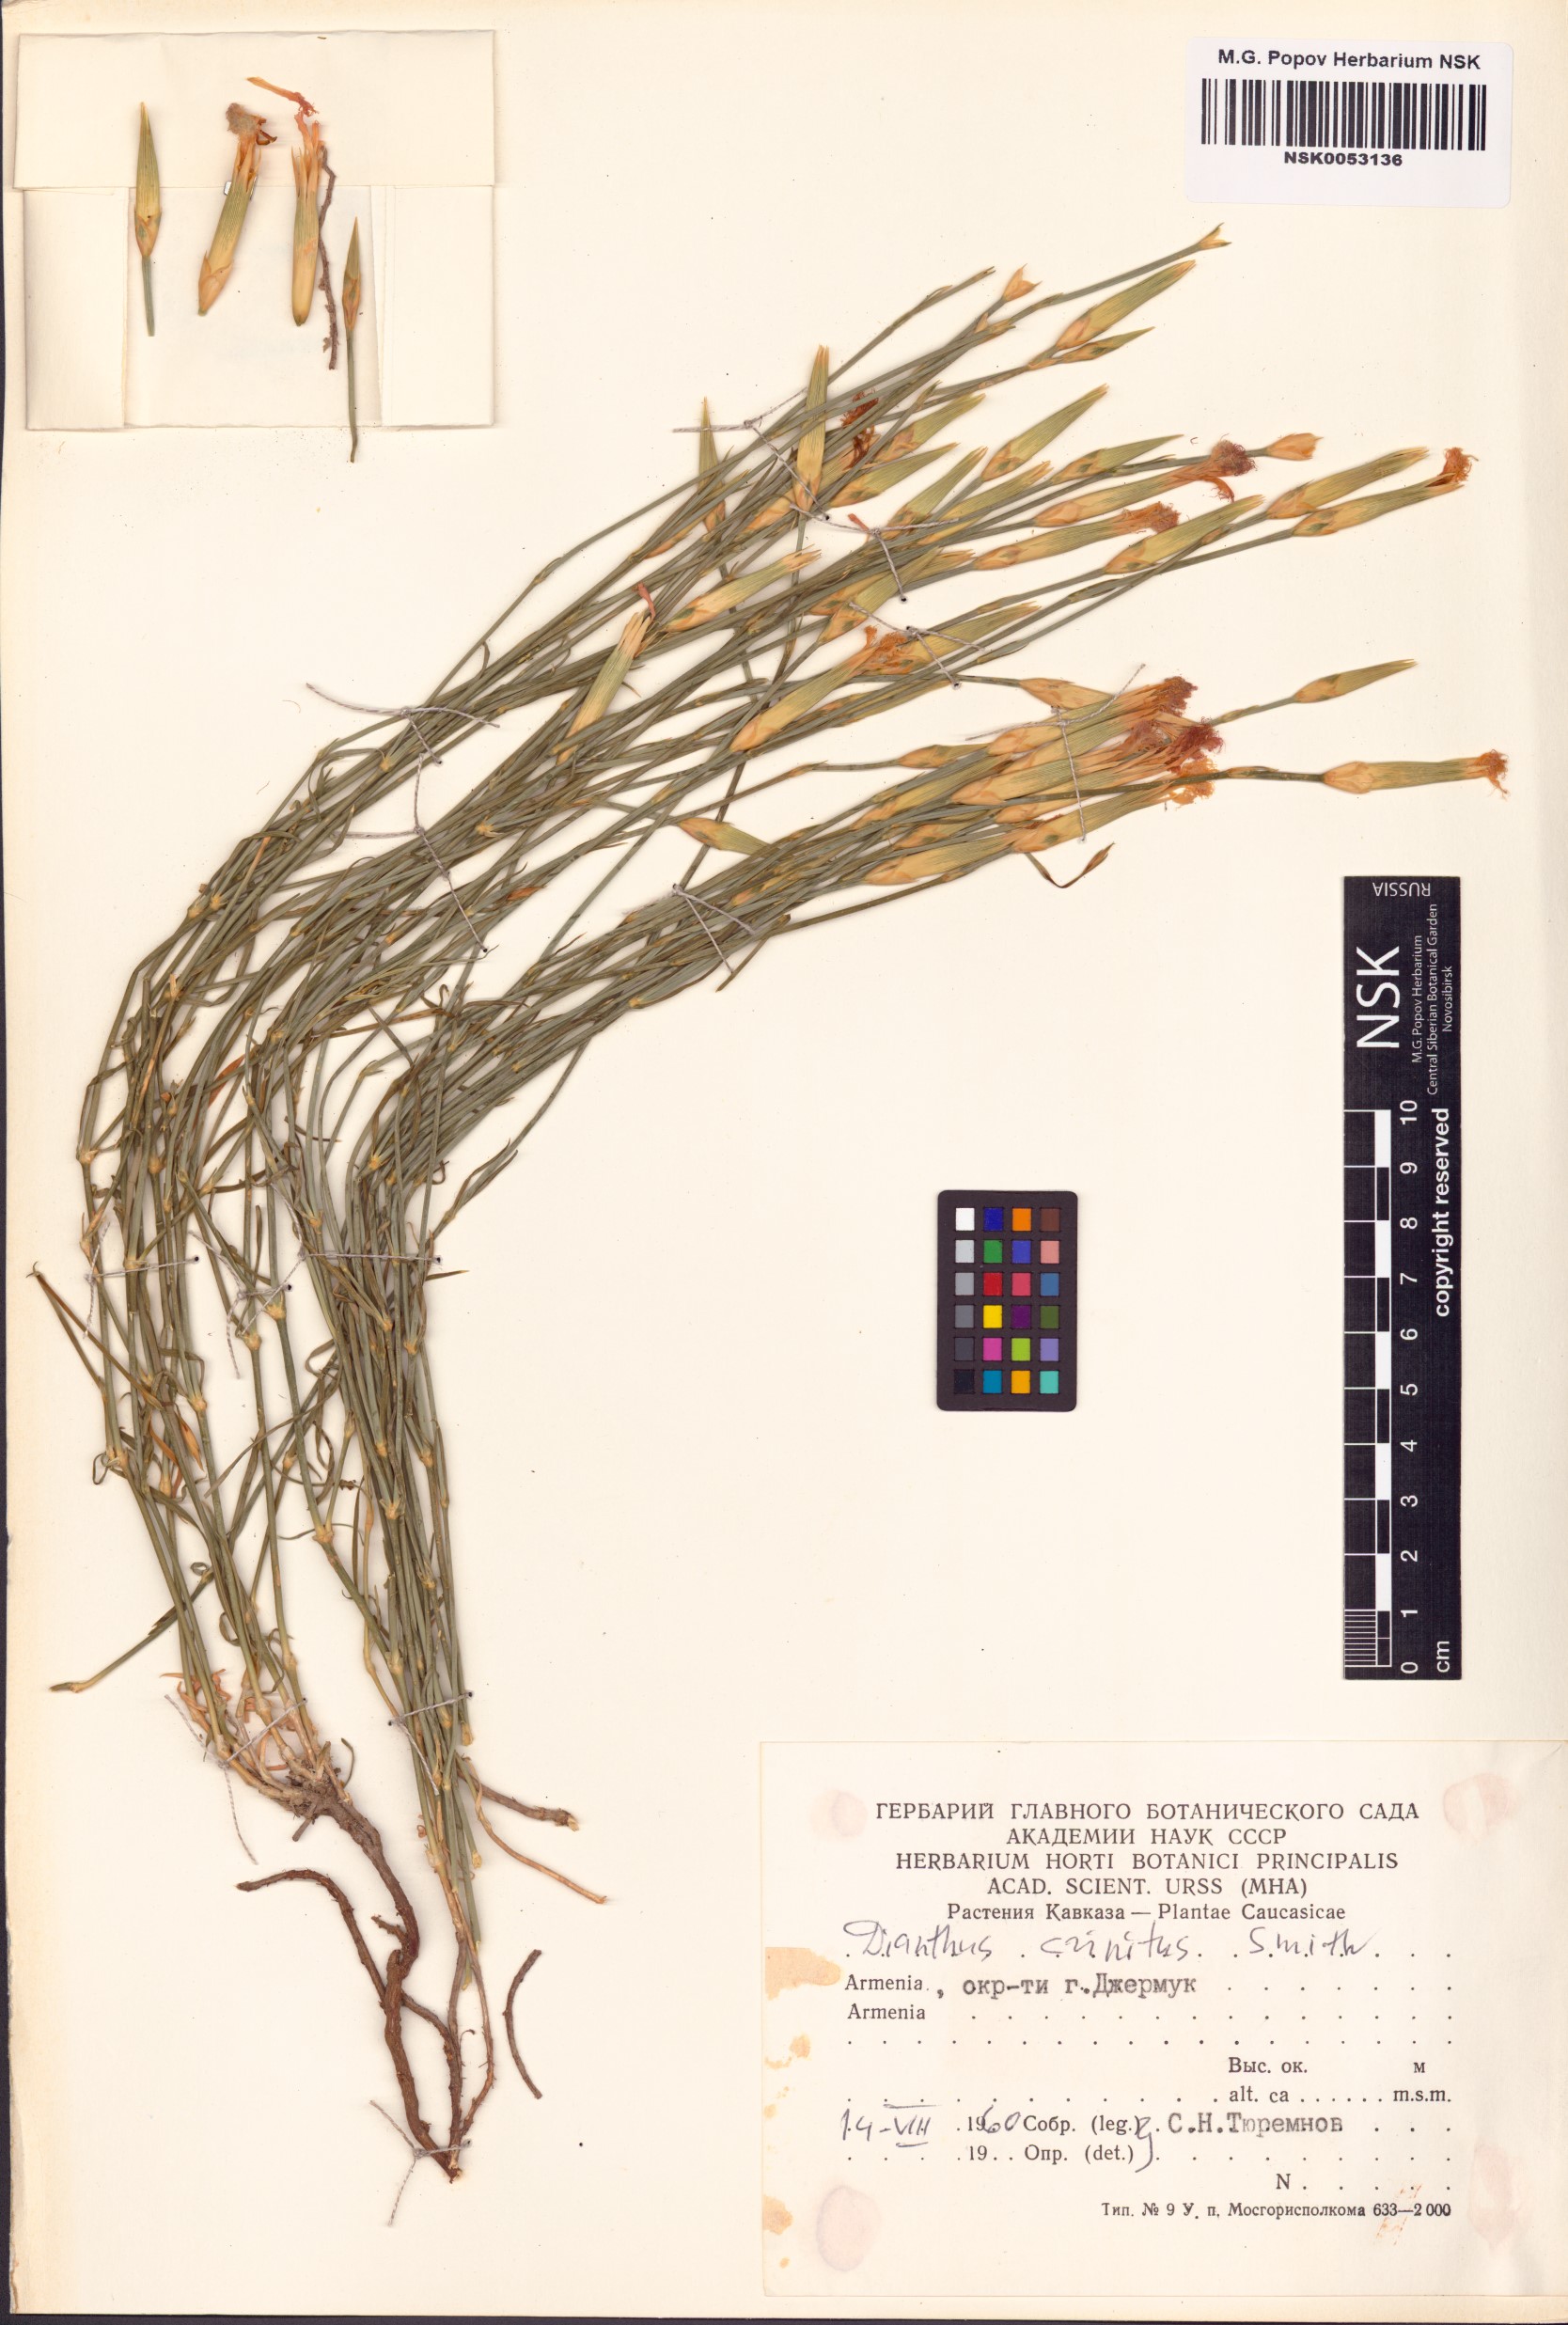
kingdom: Plantae
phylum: Tracheophyta
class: Magnoliopsida
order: Caryophyllales
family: Caryophyllaceae
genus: Dianthus
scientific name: Dianthus crinitus
